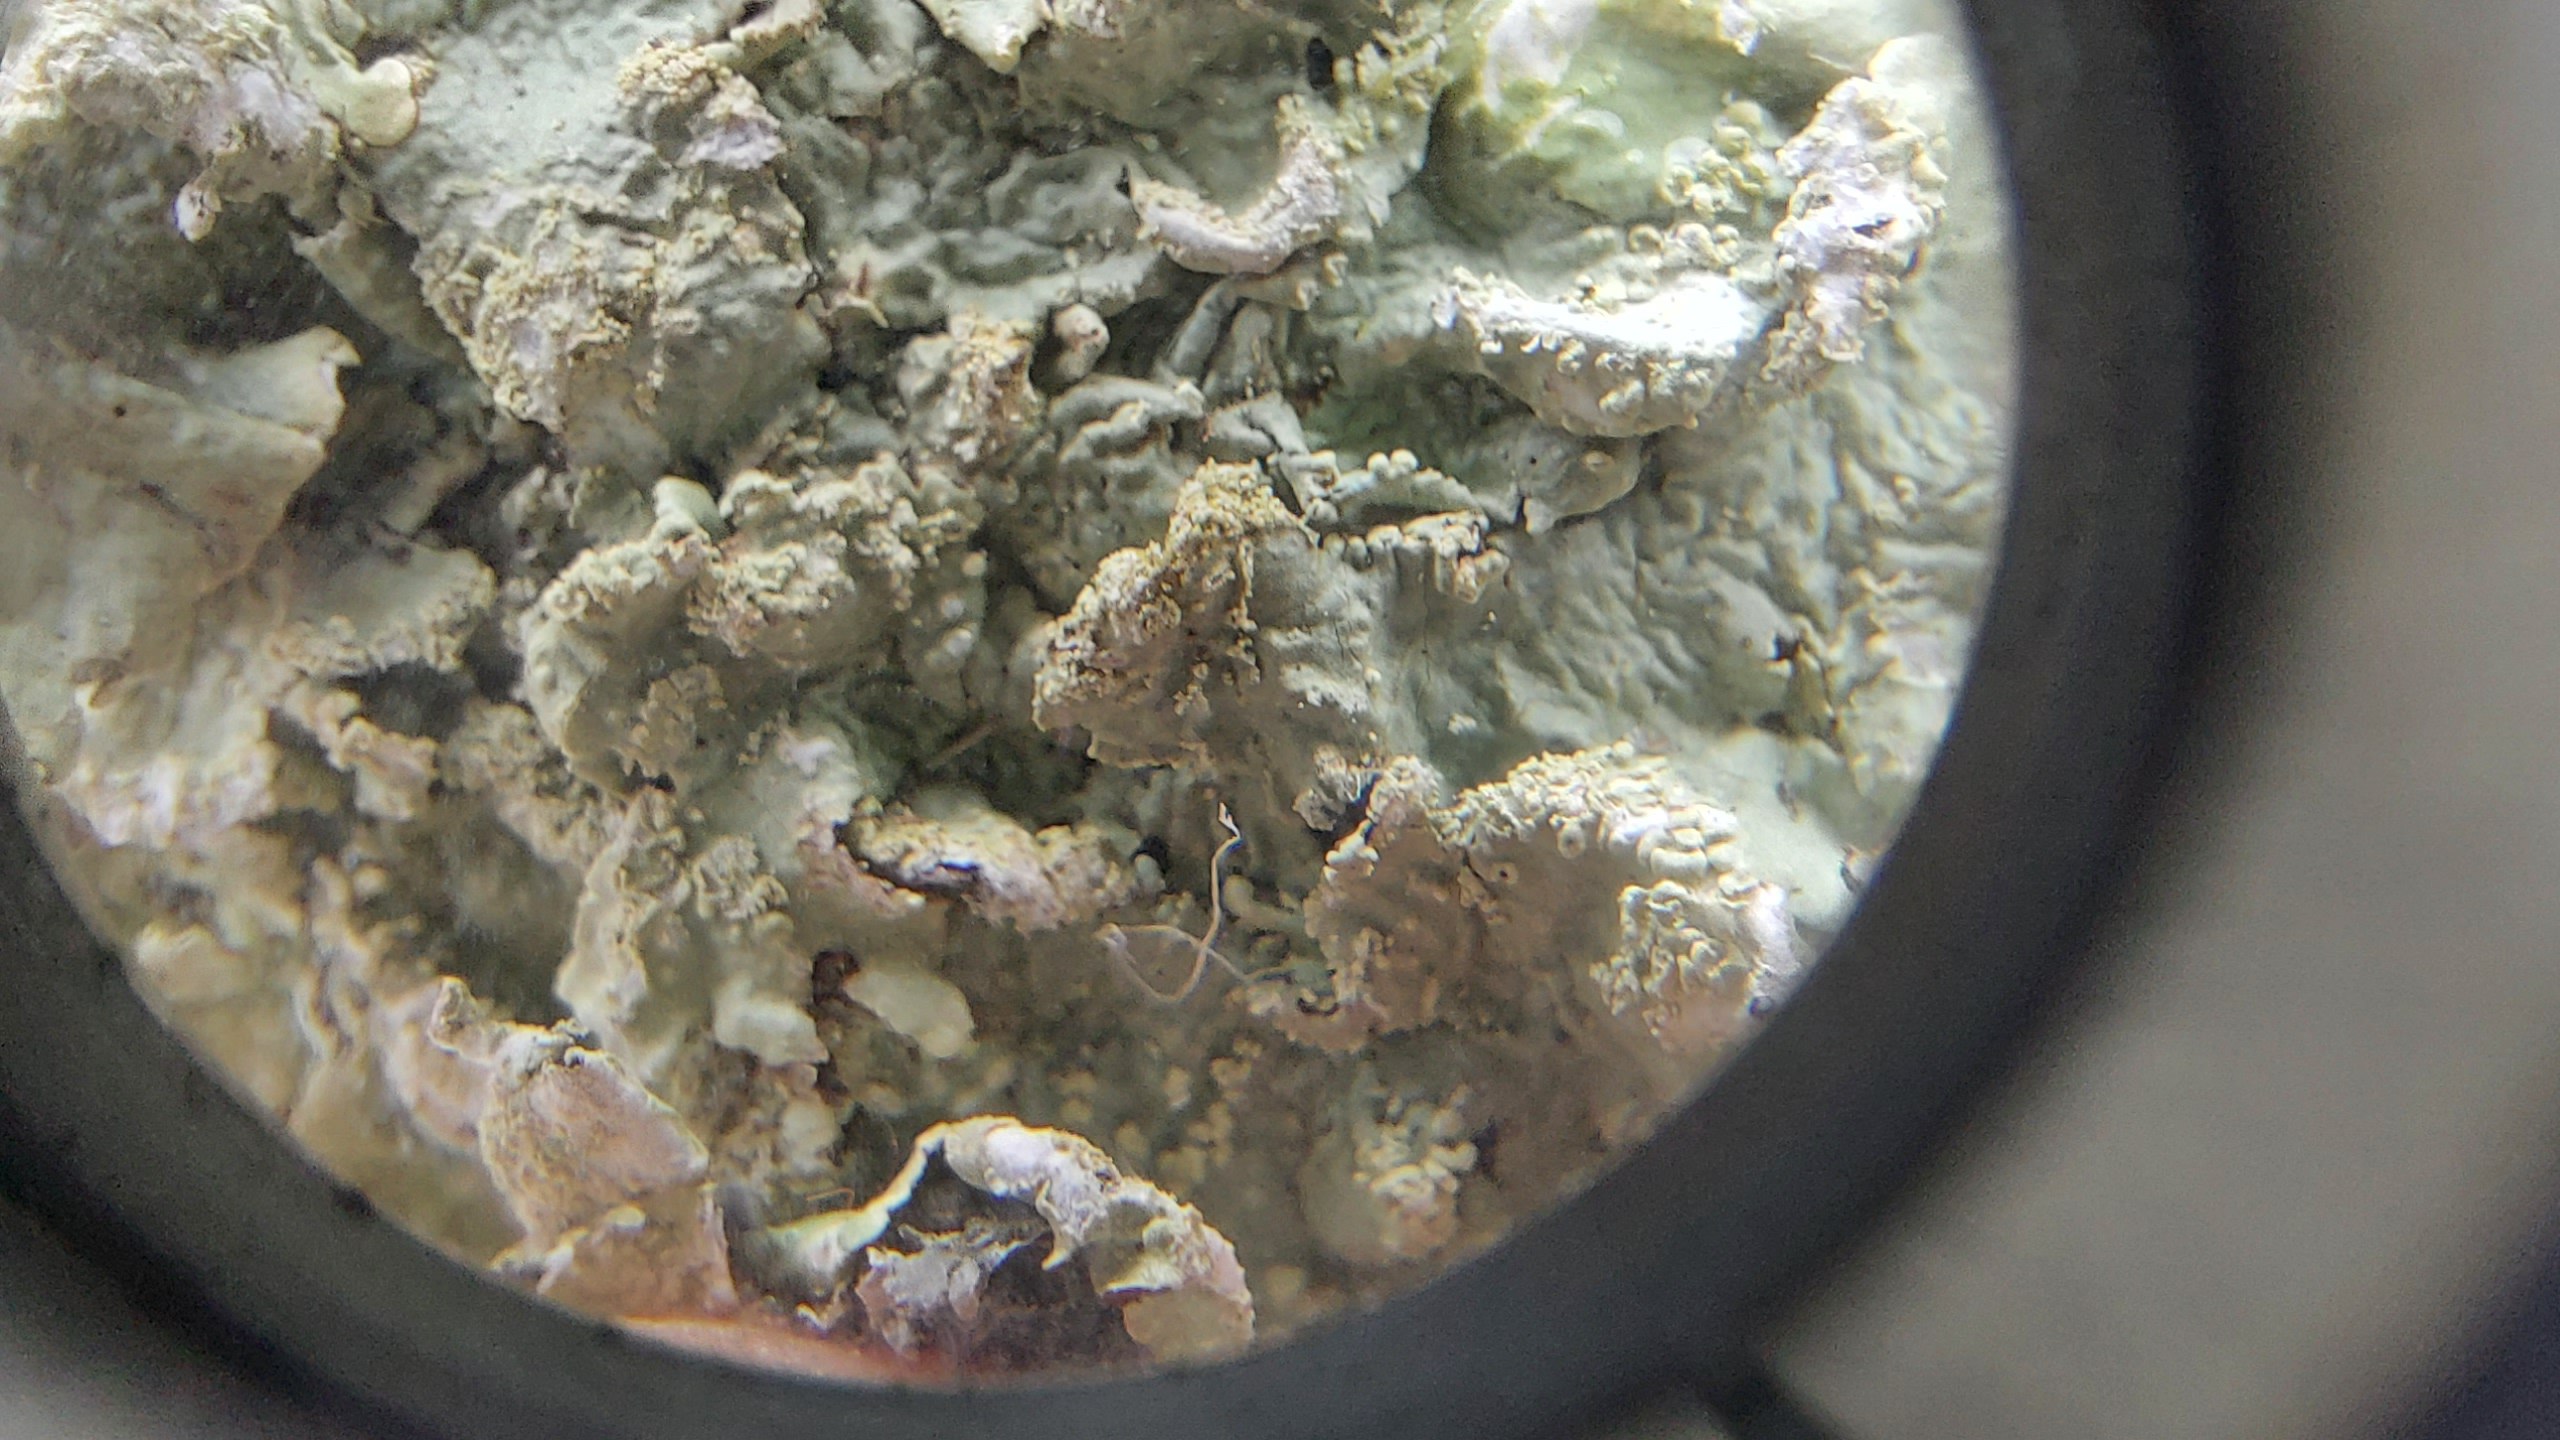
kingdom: Fungi
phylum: Ascomycota
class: Lecanoromycetes
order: Lecanorales
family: Parmeliaceae
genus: Flavoparmelia
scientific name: Flavoparmelia caperata
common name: gulgrøn skållav
